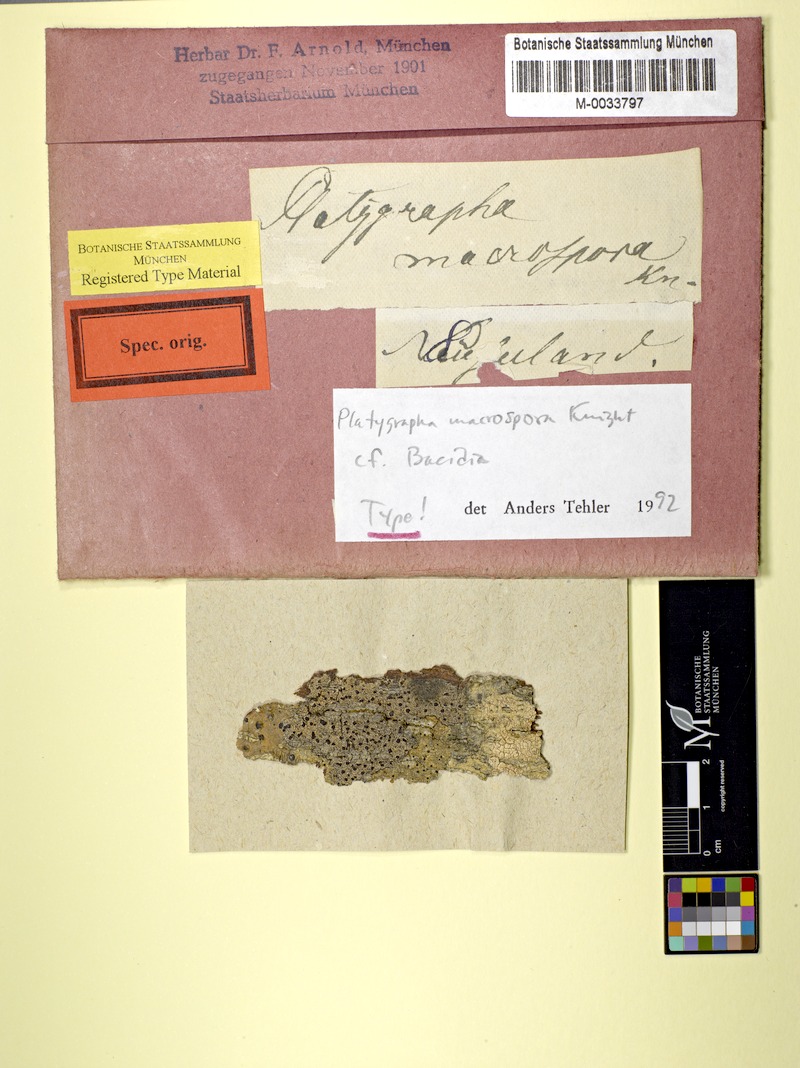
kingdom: Fungi
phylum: Ascomycota
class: Lecanoromycetes
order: Lecanorales
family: Ramalinaceae
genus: Bacidia
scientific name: Bacidia macrospora
